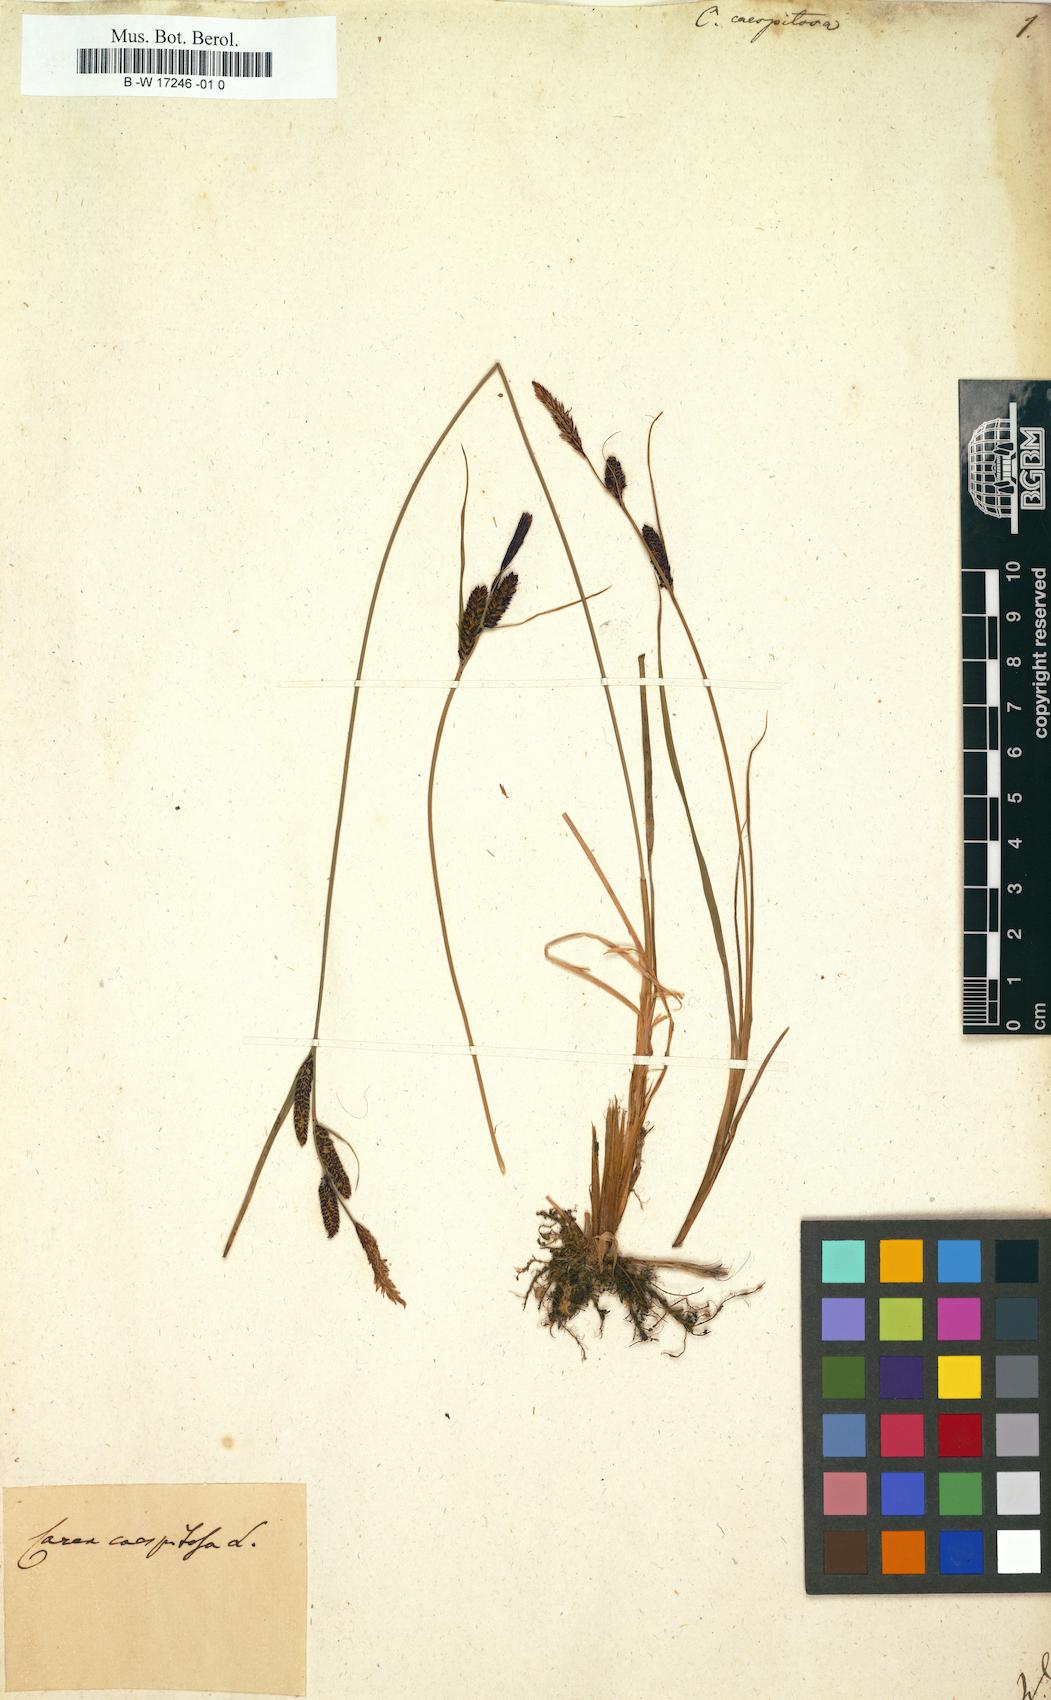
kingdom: Plantae
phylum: Tracheophyta
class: Liliopsida
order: Poales
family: Cyperaceae
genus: Carex
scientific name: Carex cespitosa
